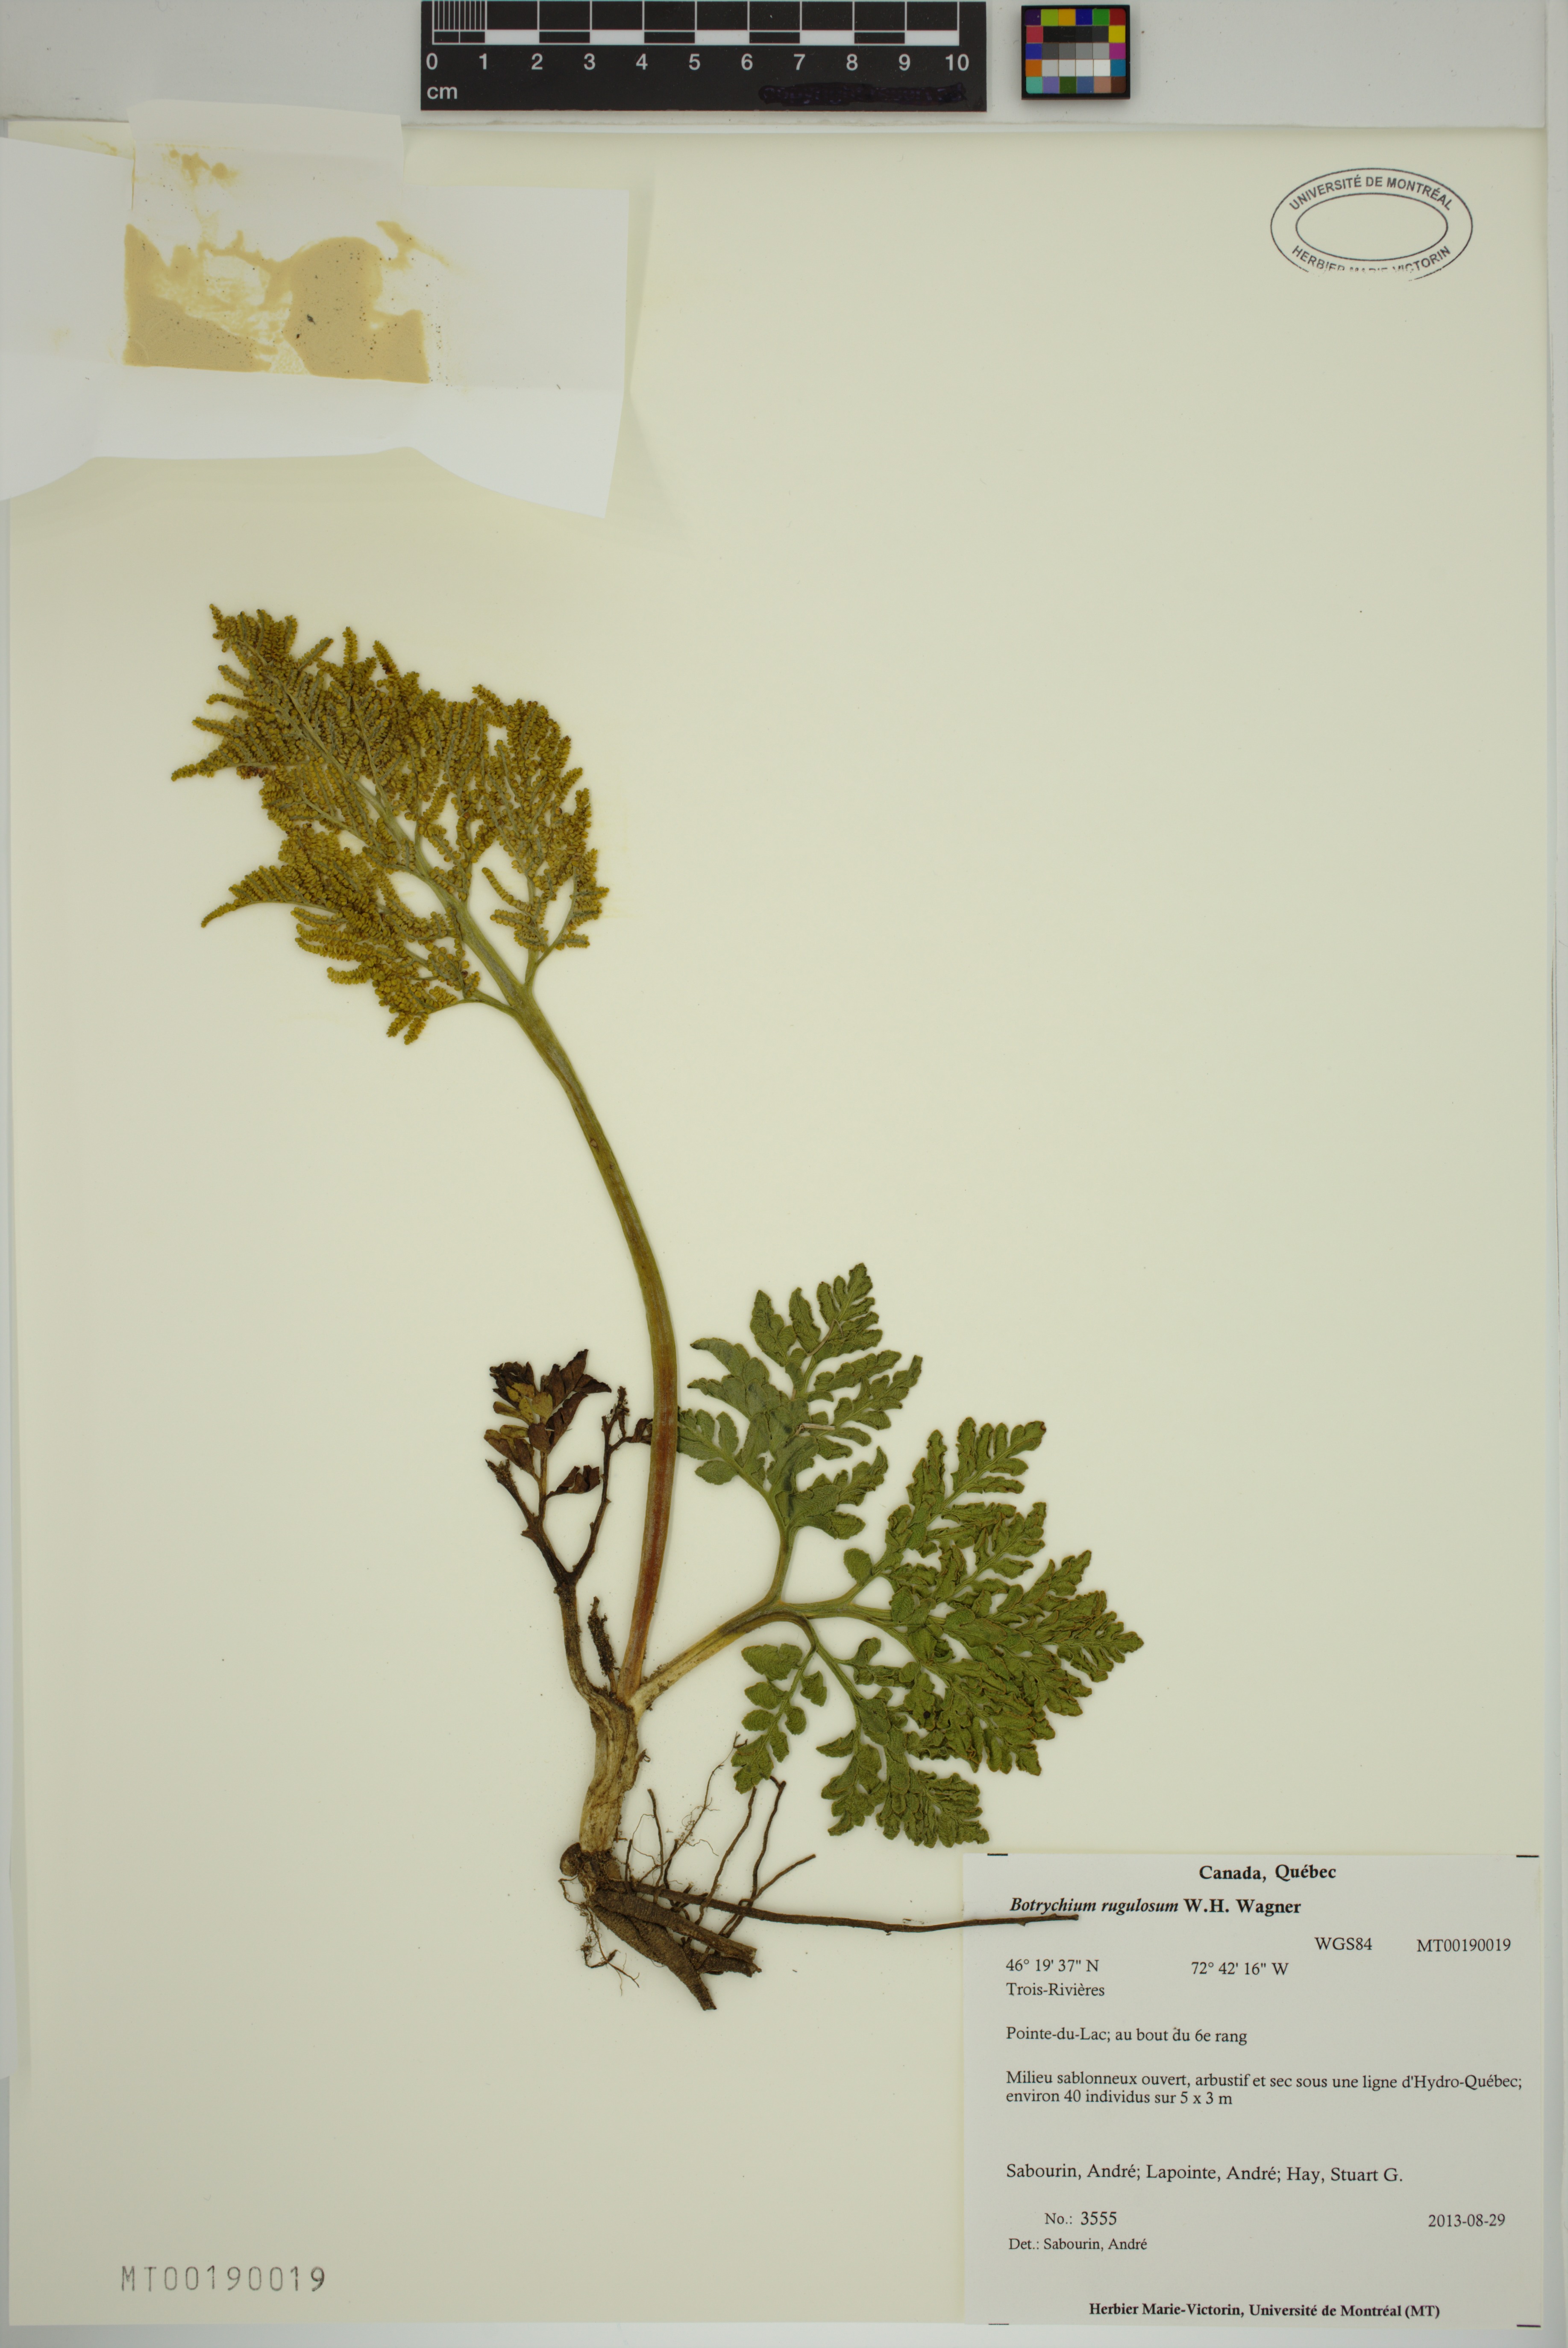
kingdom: Plantae
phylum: Tracheophyta
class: Polypodiopsida
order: Ophioglossales
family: Ophioglossaceae
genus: Sceptridium
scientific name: Sceptridium rugulosum
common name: Rugulose grapefern
